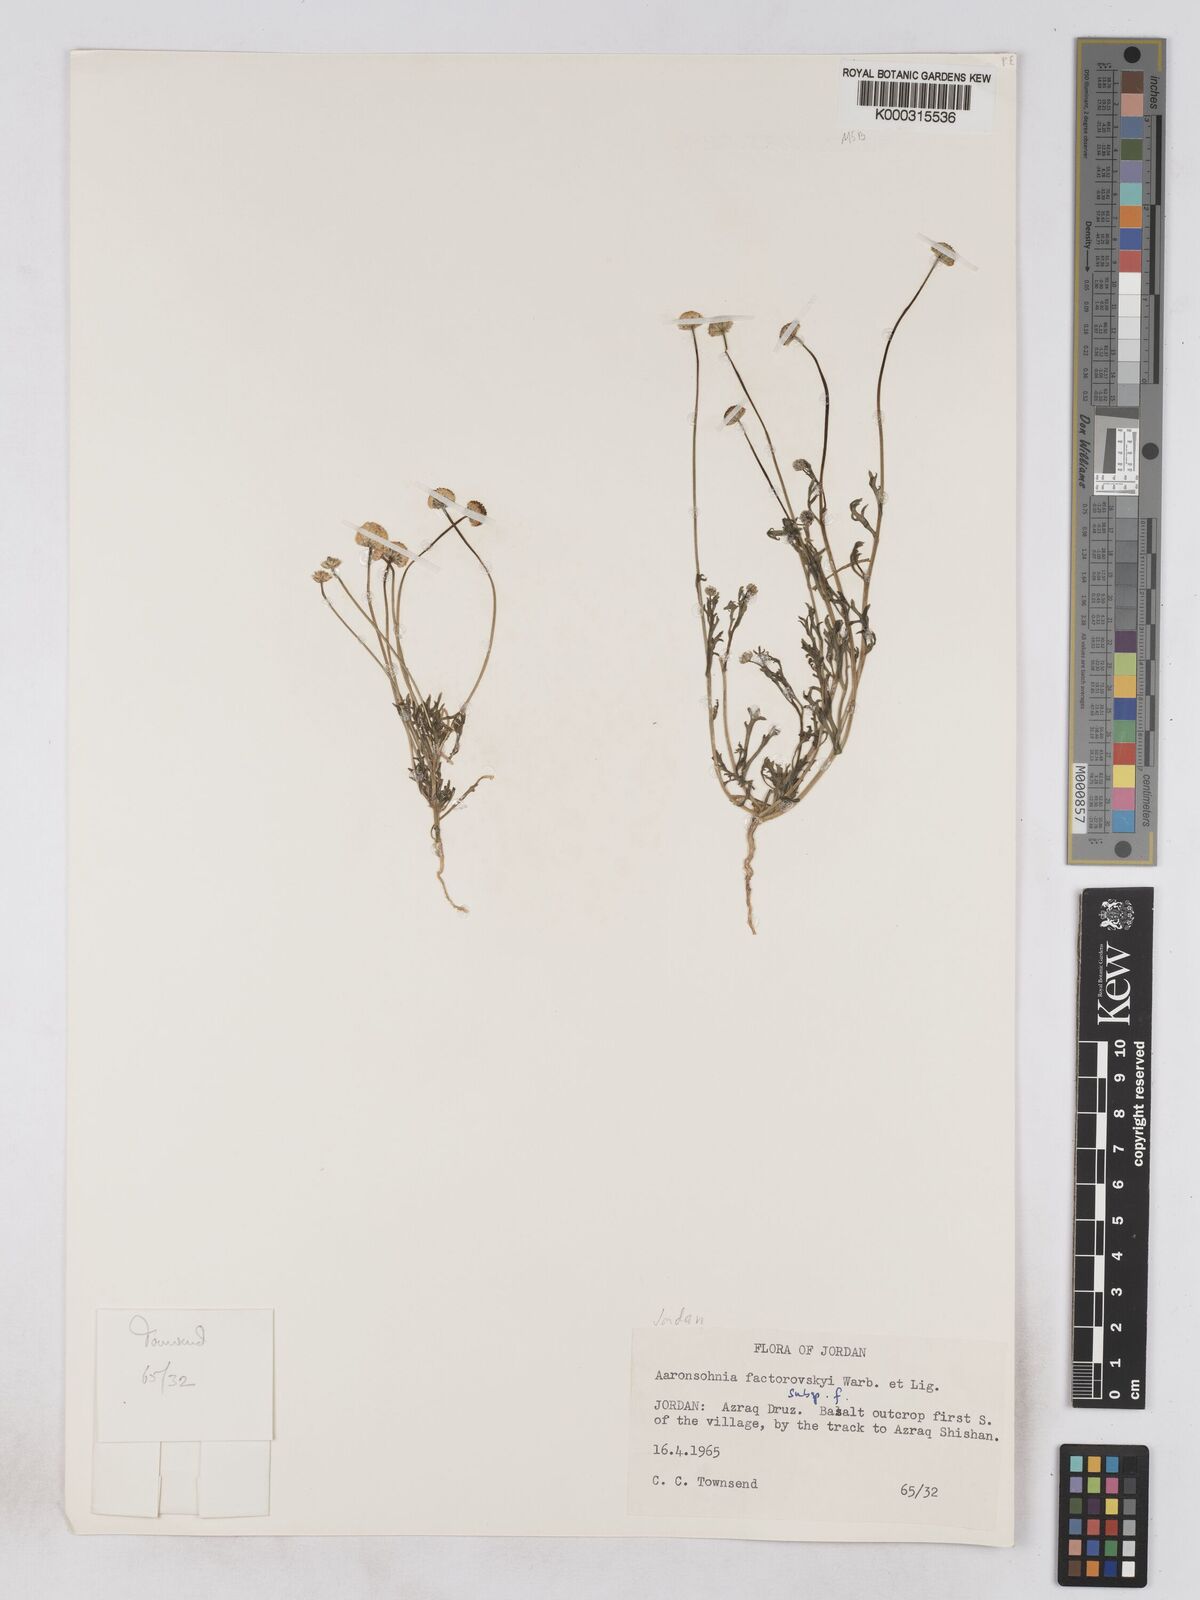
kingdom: Plantae
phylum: Tracheophyta
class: Magnoliopsida
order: Asterales
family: Asteraceae
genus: Otoglyphis
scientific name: Otoglyphis factorovskyi
